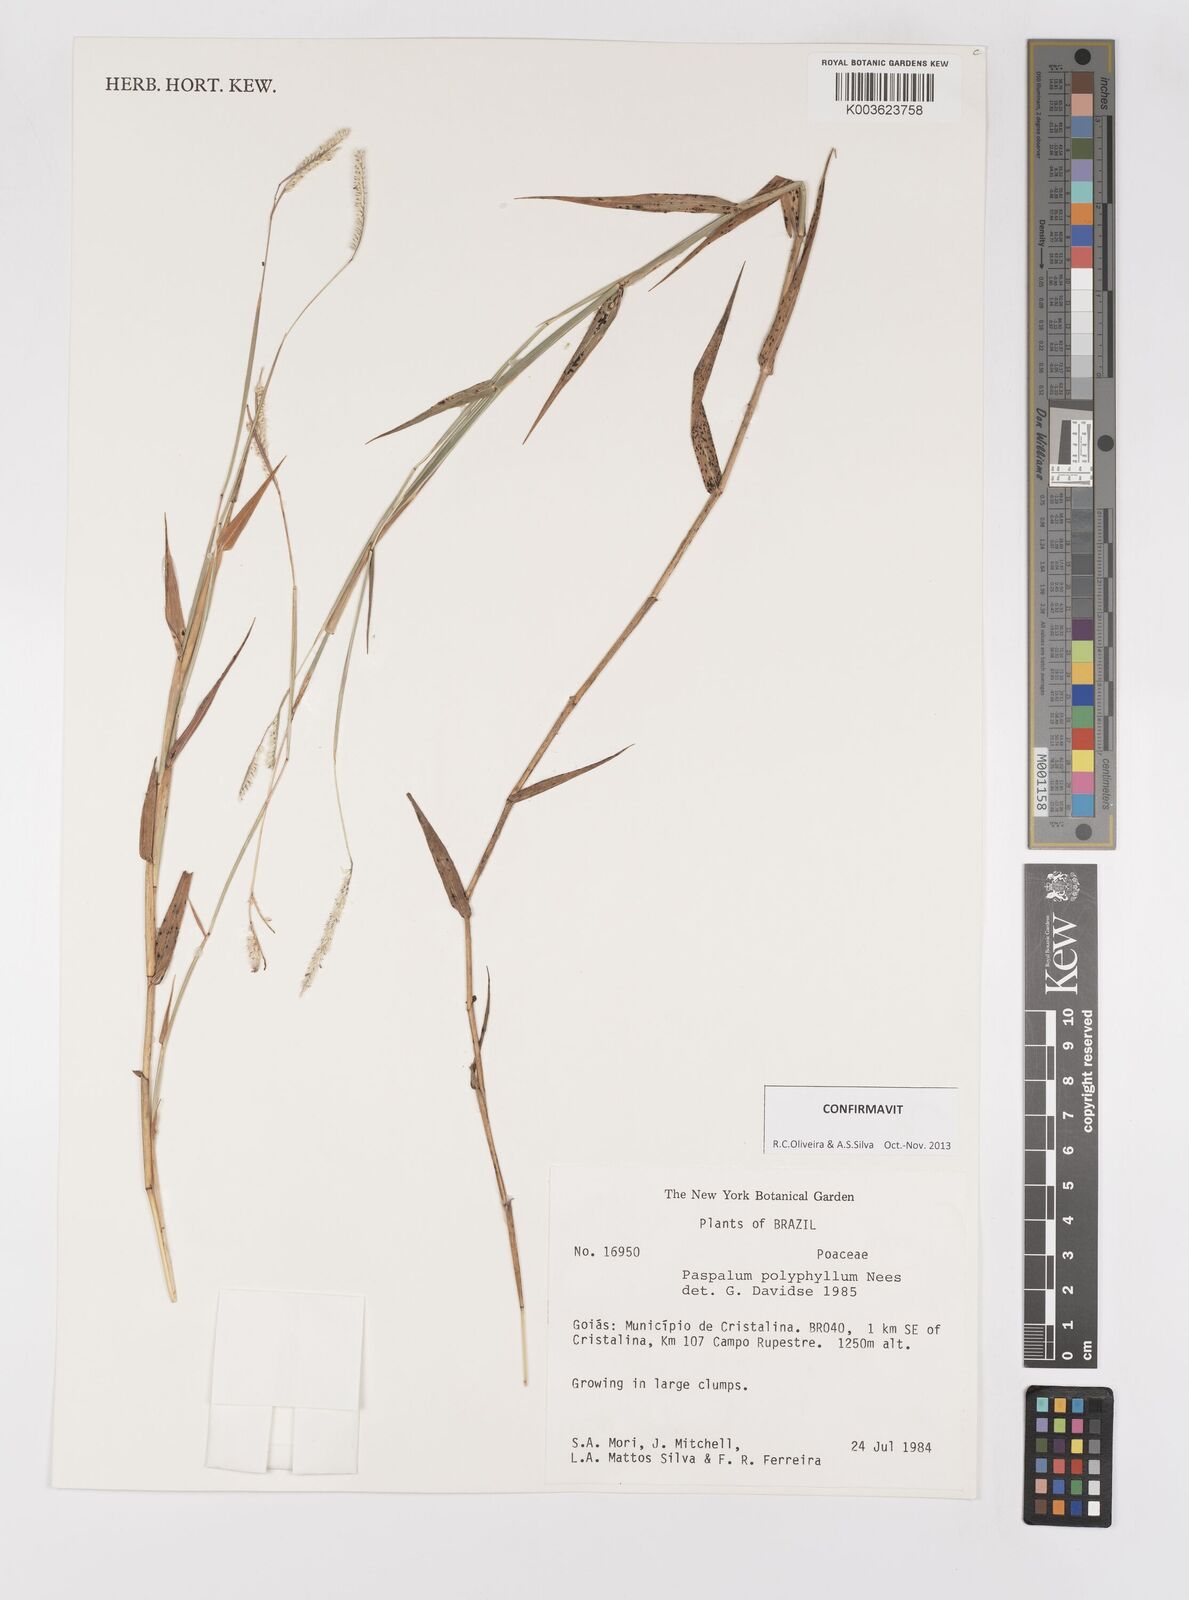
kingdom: Plantae
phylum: Tracheophyta
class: Liliopsida
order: Poales
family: Poaceae
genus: Paspalum
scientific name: Paspalum polyphyllum
